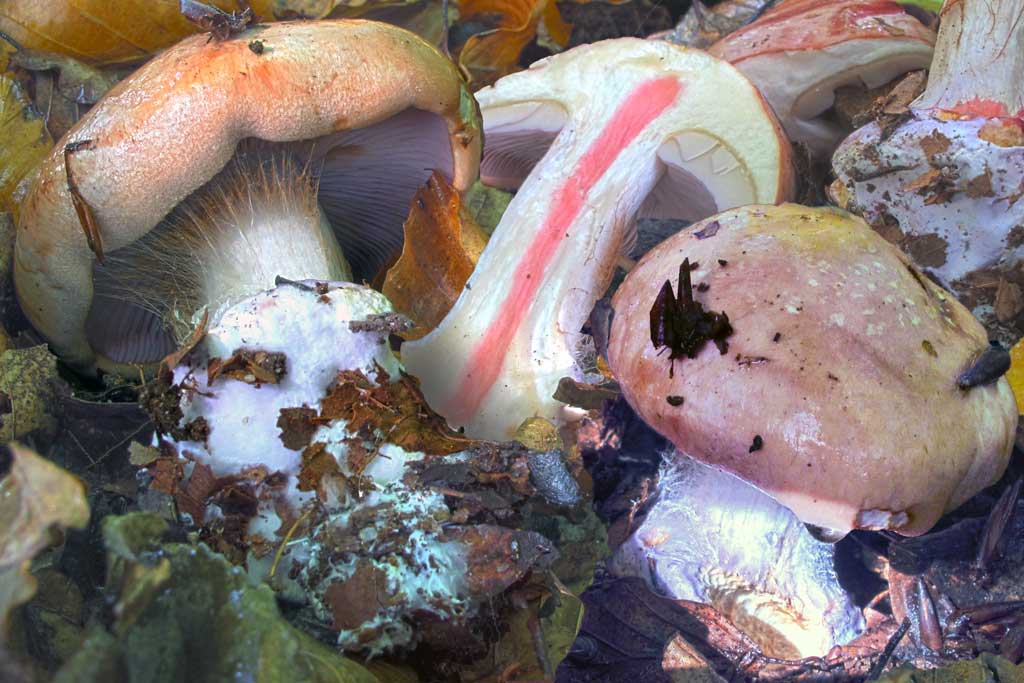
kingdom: Fungi
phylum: Basidiomycota
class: Agaricomycetes
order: Agaricales
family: Cortinariaceae
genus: Calonarius
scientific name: Calonarius arcuatorum
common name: violetflaget slørhat
